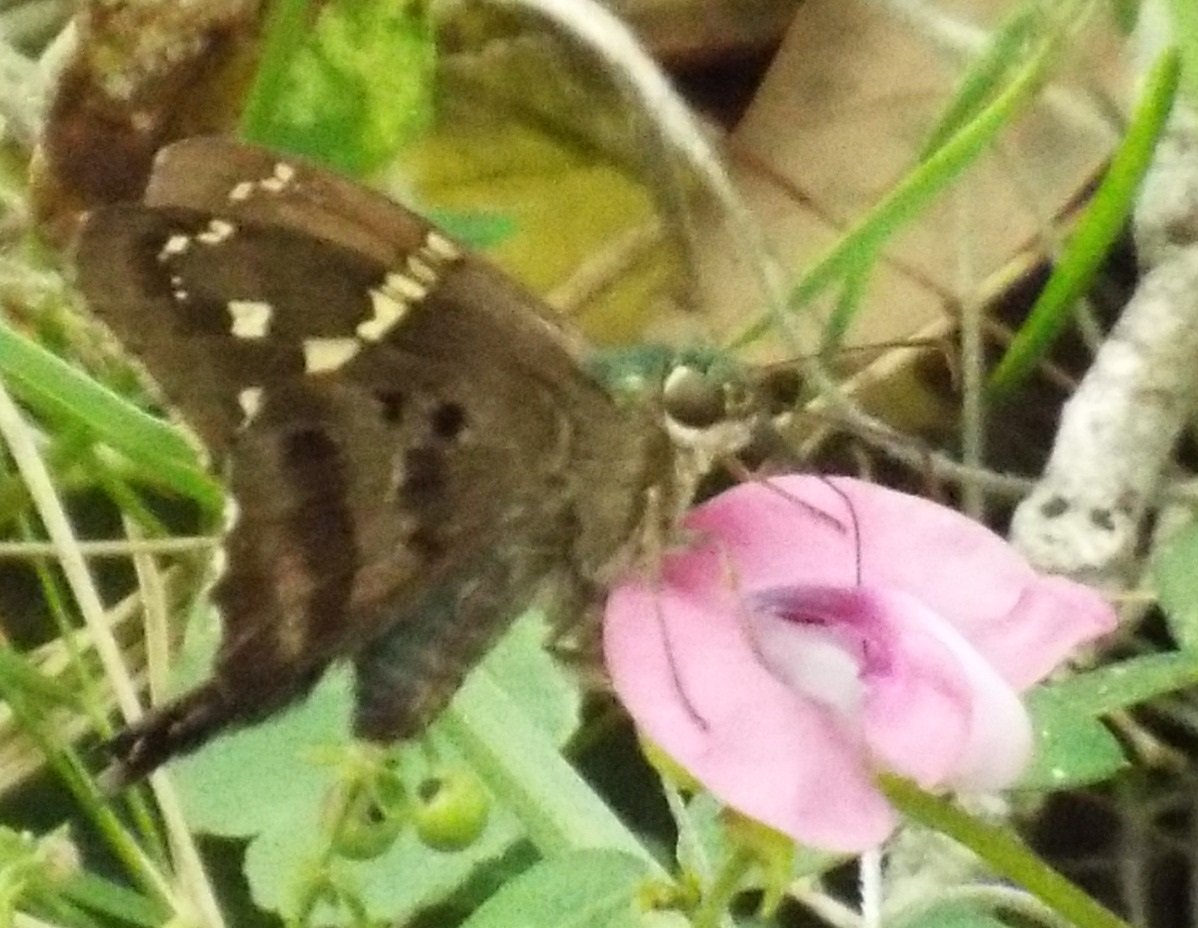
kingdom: Animalia
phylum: Arthropoda
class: Insecta
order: Lepidoptera
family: Hesperiidae
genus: Urbanus
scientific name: Urbanus proteus
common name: Long-tailed Skipper
